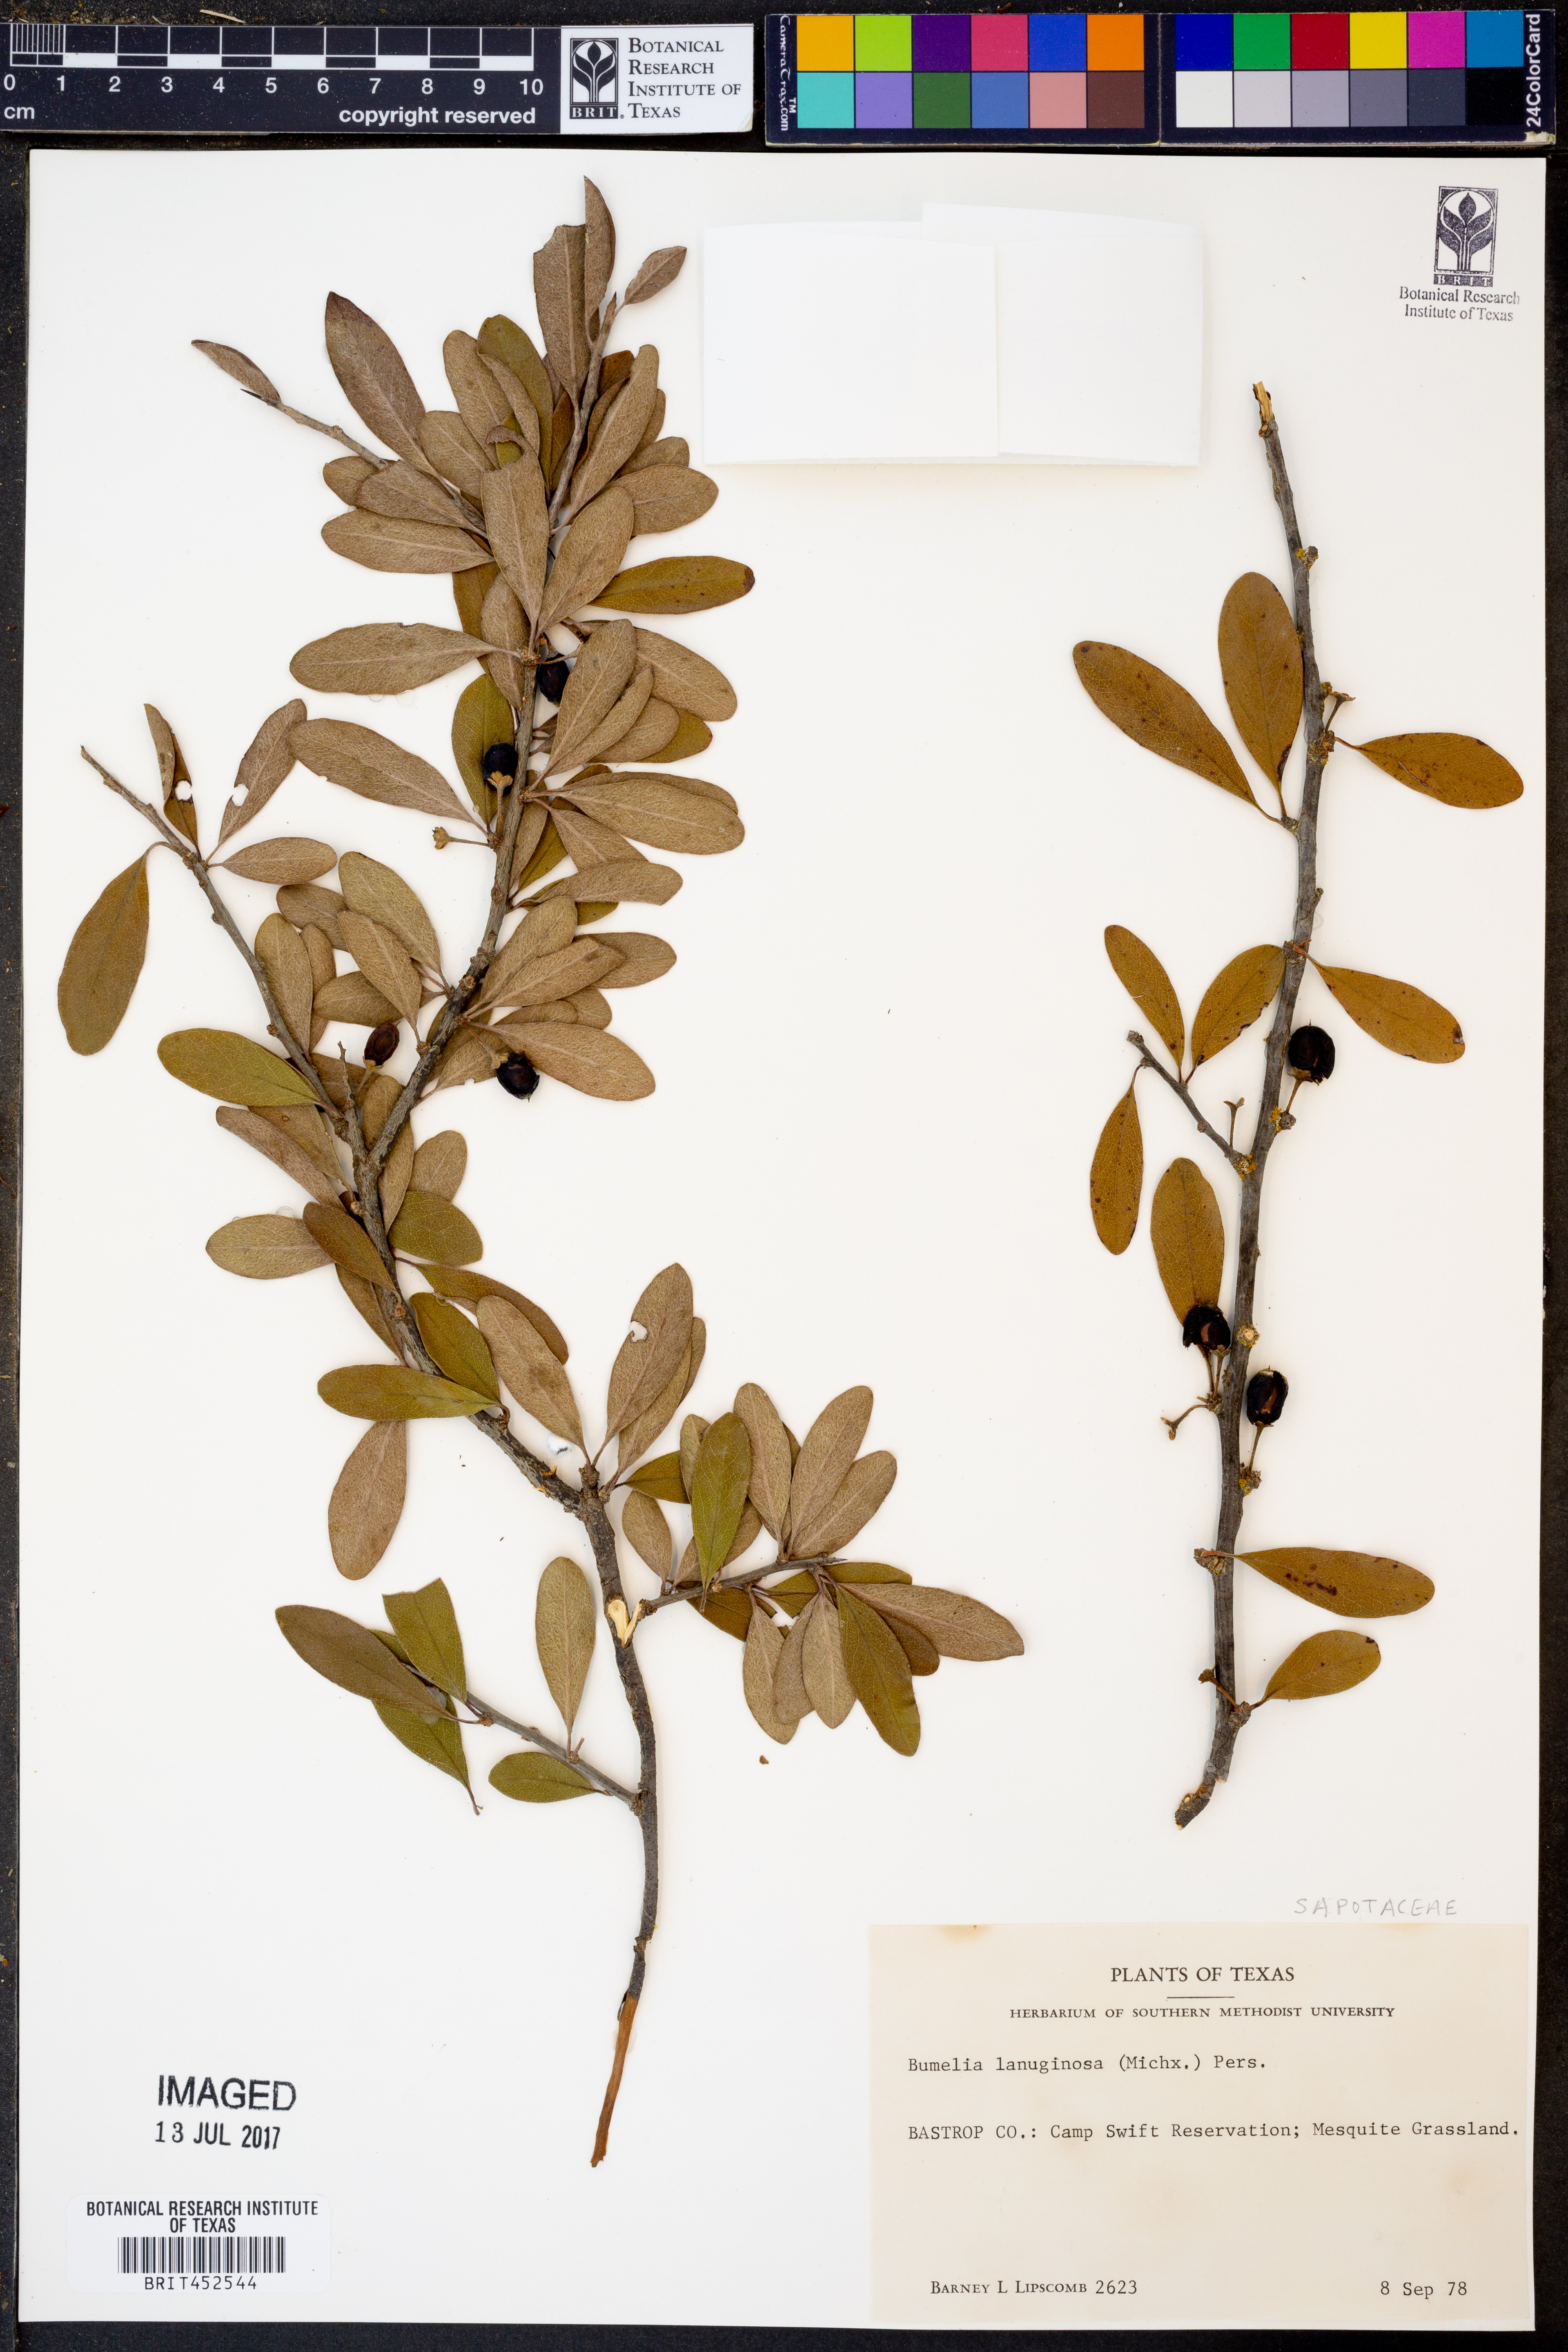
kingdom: Plantae
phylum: Tracheophyta
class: Magnoliopsida
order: Ericales
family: Sapotaceae
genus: Sideroxylon
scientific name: Sideroxylon lanuginosum
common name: Chittamwood
